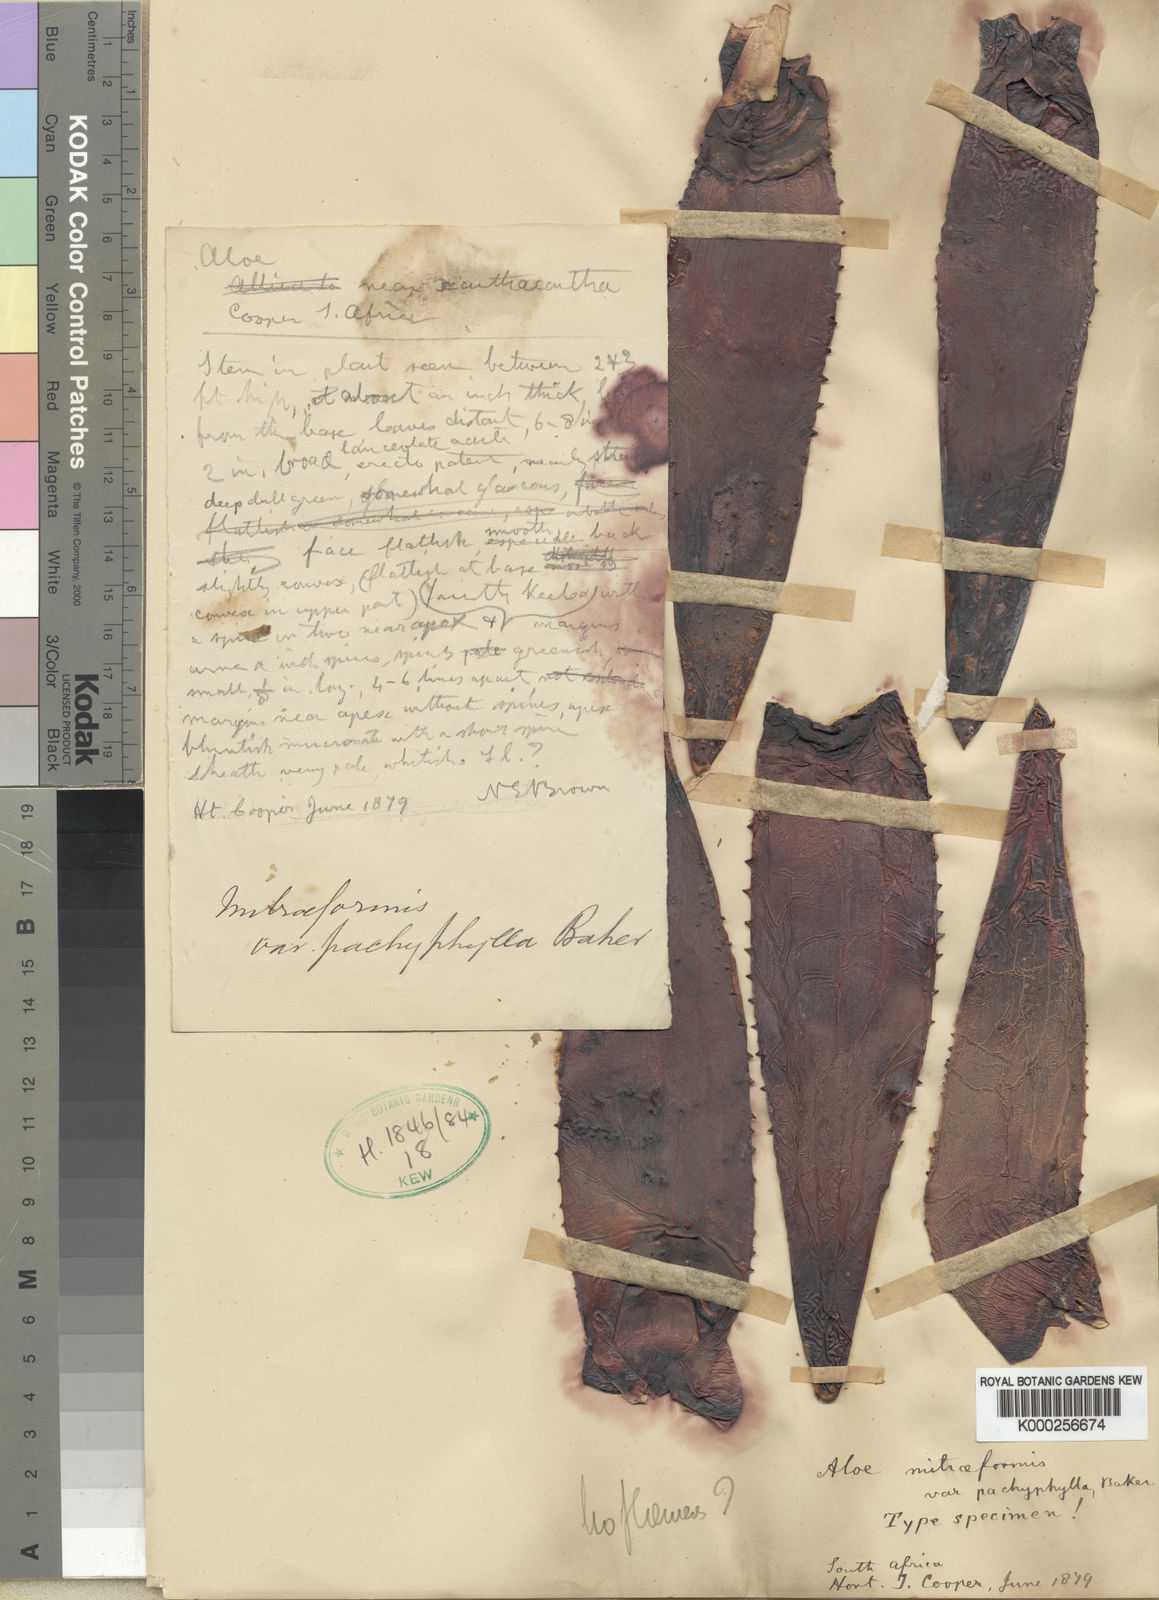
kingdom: Plantae
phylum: Tracheophyta
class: Liliopsida
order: Asparagales
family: Asphodelaceae
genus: Aloe
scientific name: Aloe perfoliata
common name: Mitra aloe
